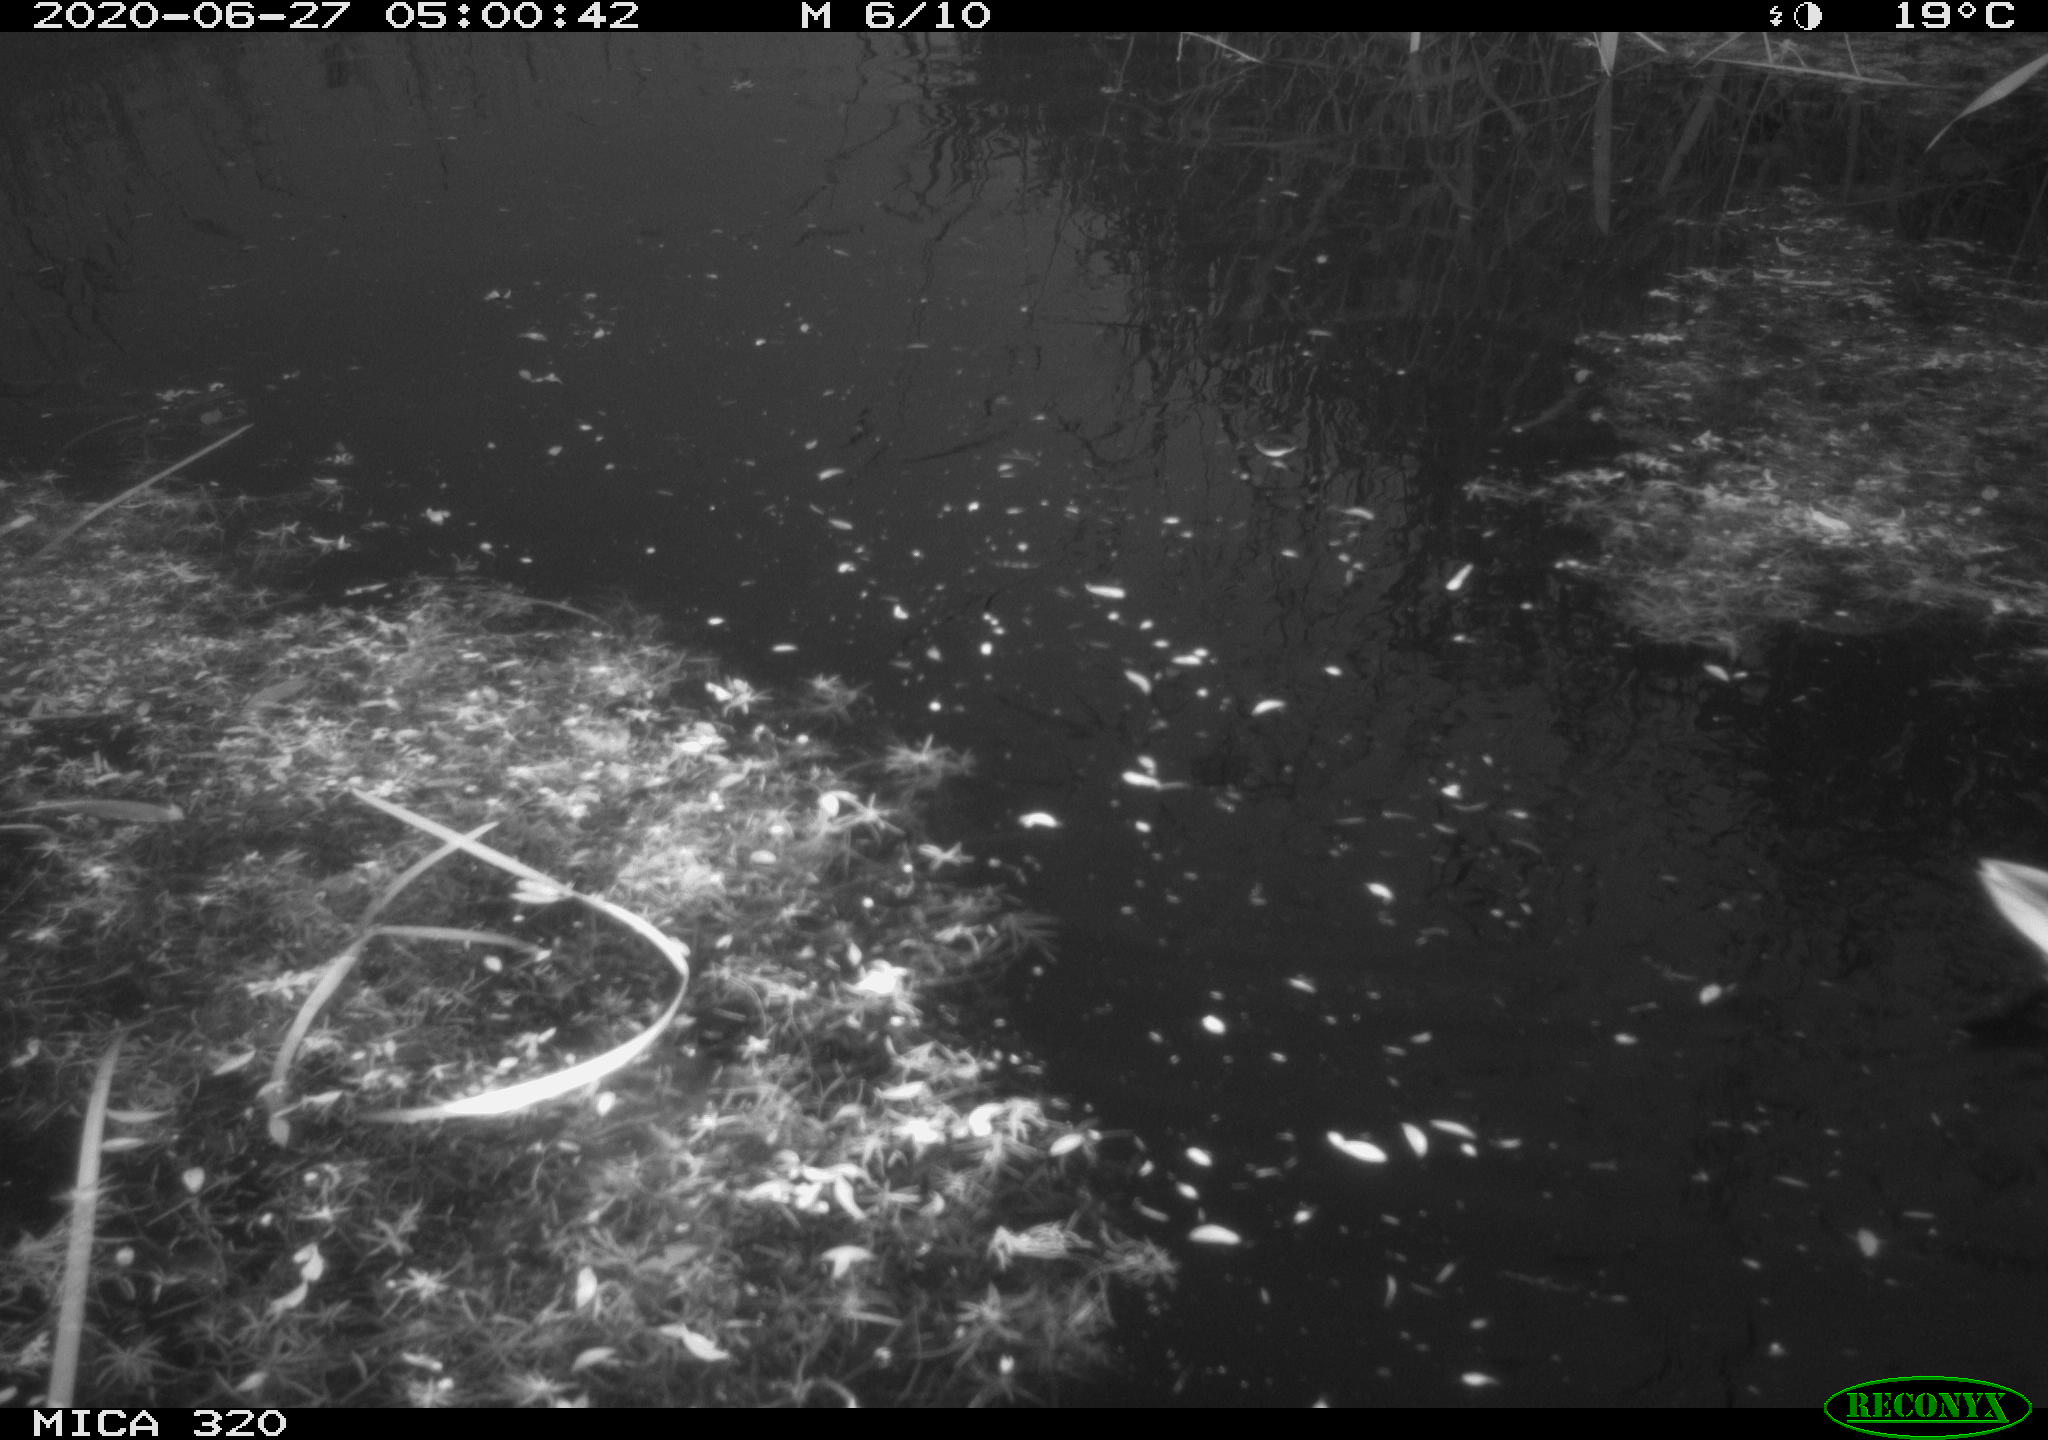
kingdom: Animalia
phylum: Chordata
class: Aves
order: Anseriformes
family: Anatidae
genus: Anas
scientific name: Anas platyrhynchos
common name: Mallard
